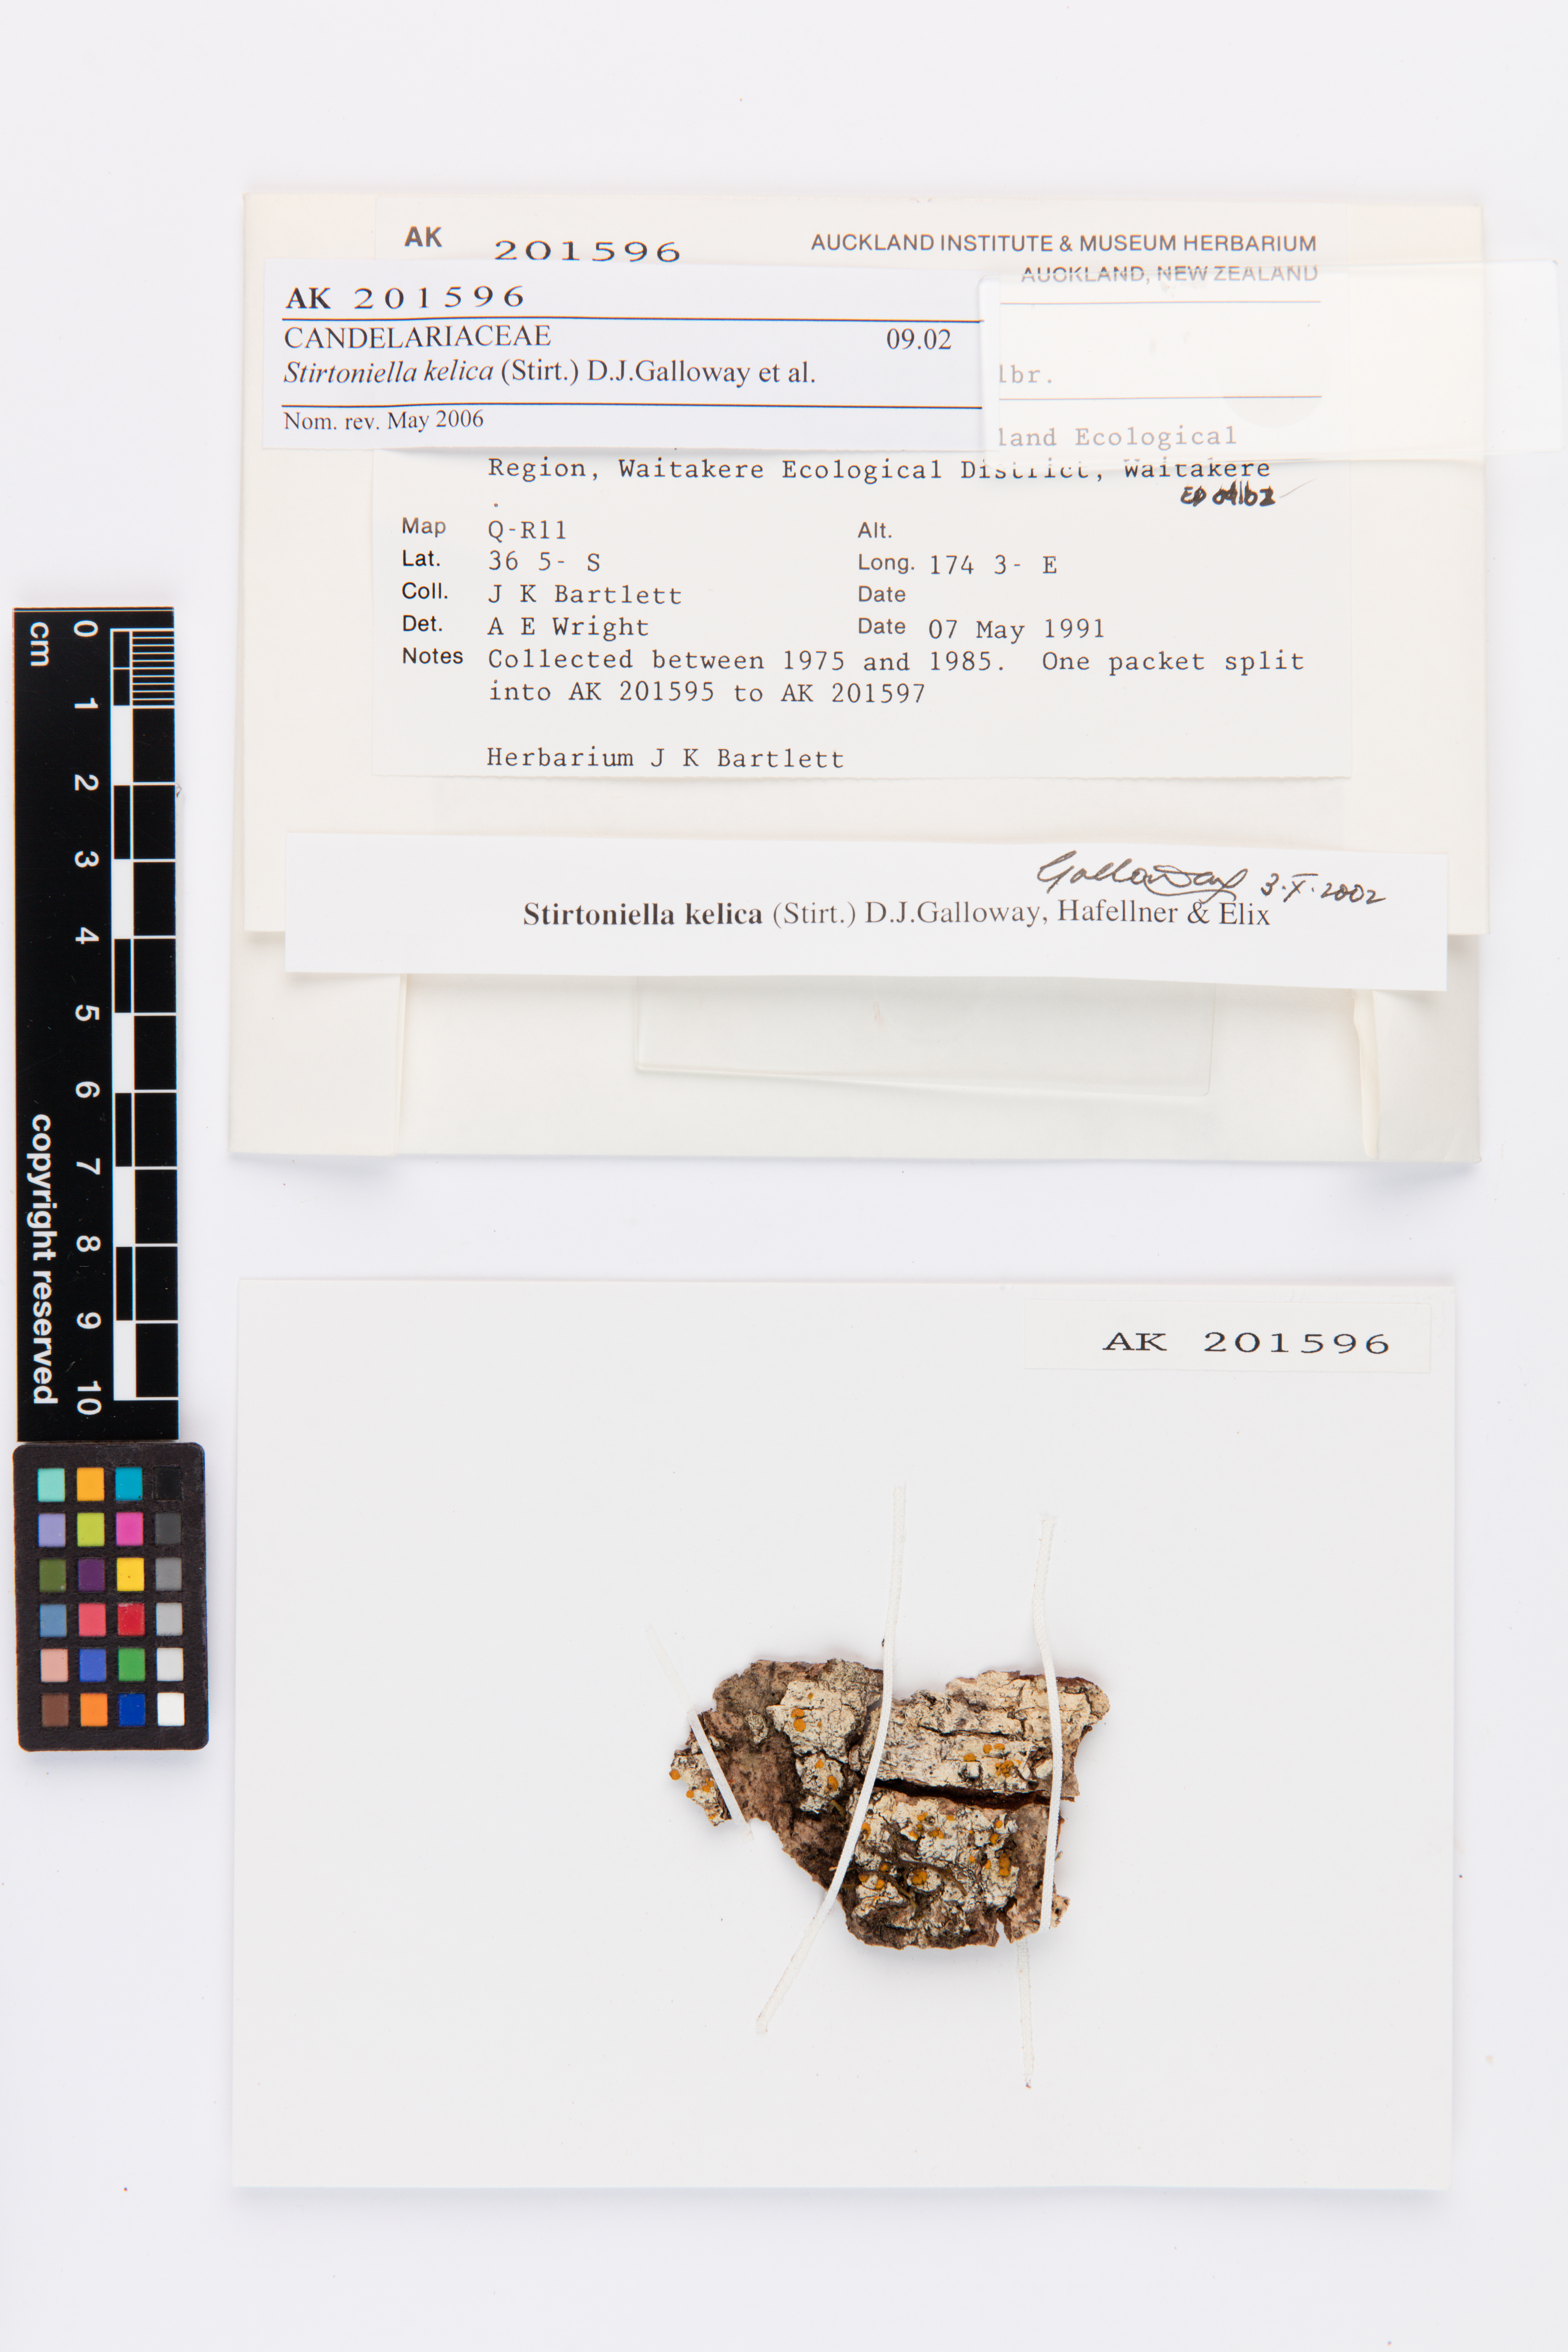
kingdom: Fungi
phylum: Ascomycota
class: Lecanoromycetes
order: Lecanorales
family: Ramalinaceae
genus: Stirtoniella
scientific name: Stirtoniella kelica
